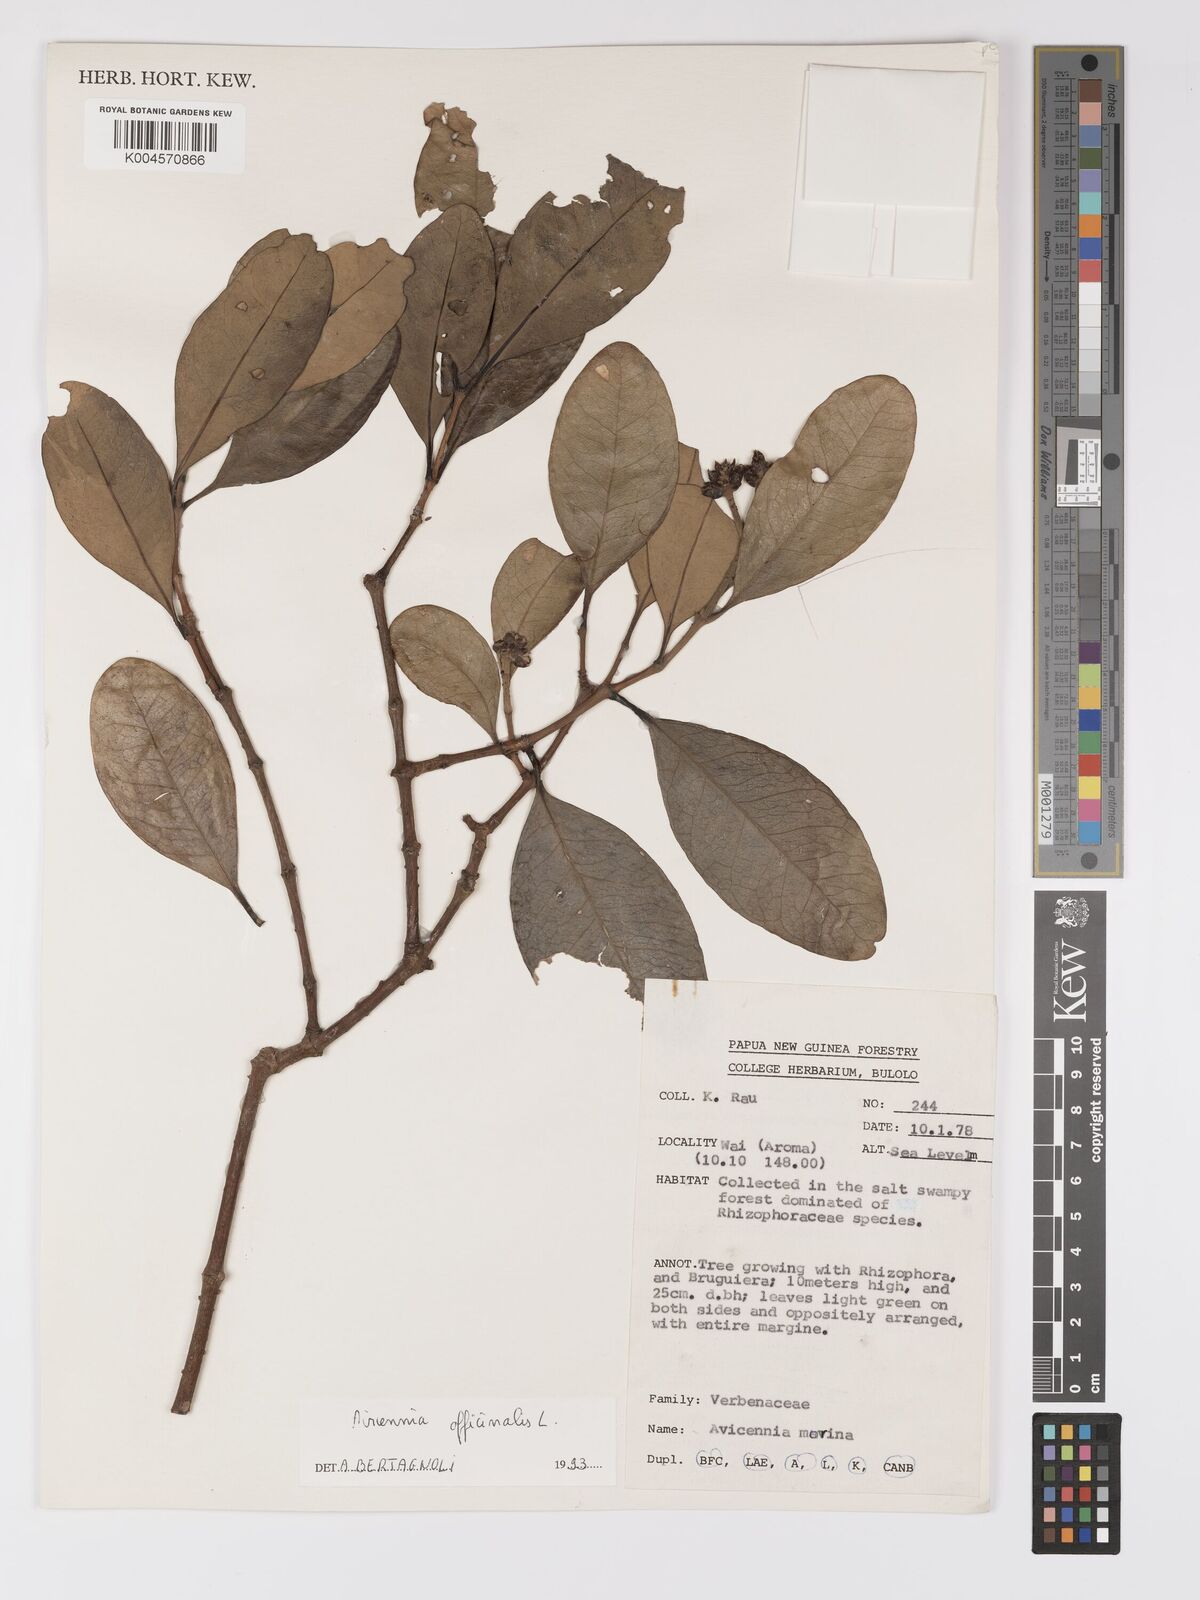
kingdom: Plantae
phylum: Tracheophyta
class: Magnoliopsida
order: Lamiales
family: Acanthaceae
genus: Avicennia
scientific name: Avicennia officinalis
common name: Baen
